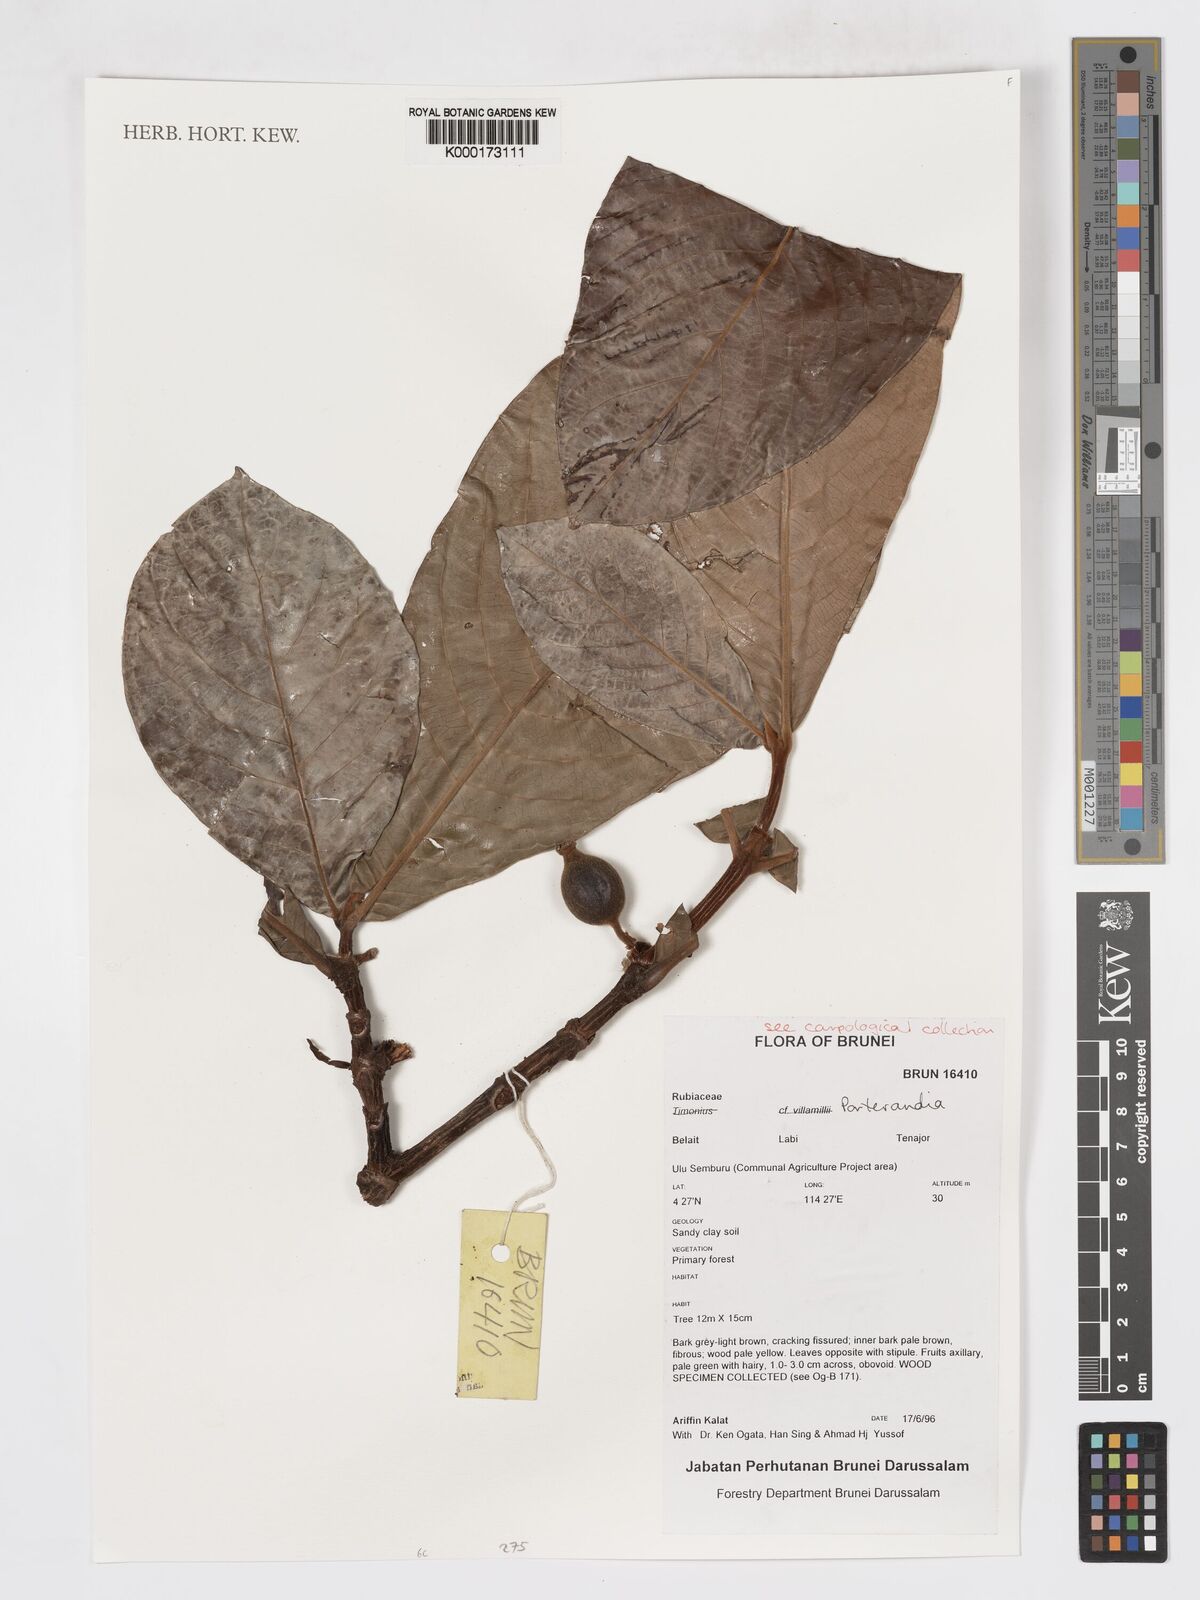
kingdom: Plantae
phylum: Tracheophyta
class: Magnoliopsida
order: Gentianales
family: Rubiaceae
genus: Porterandia
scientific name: Porterandia
